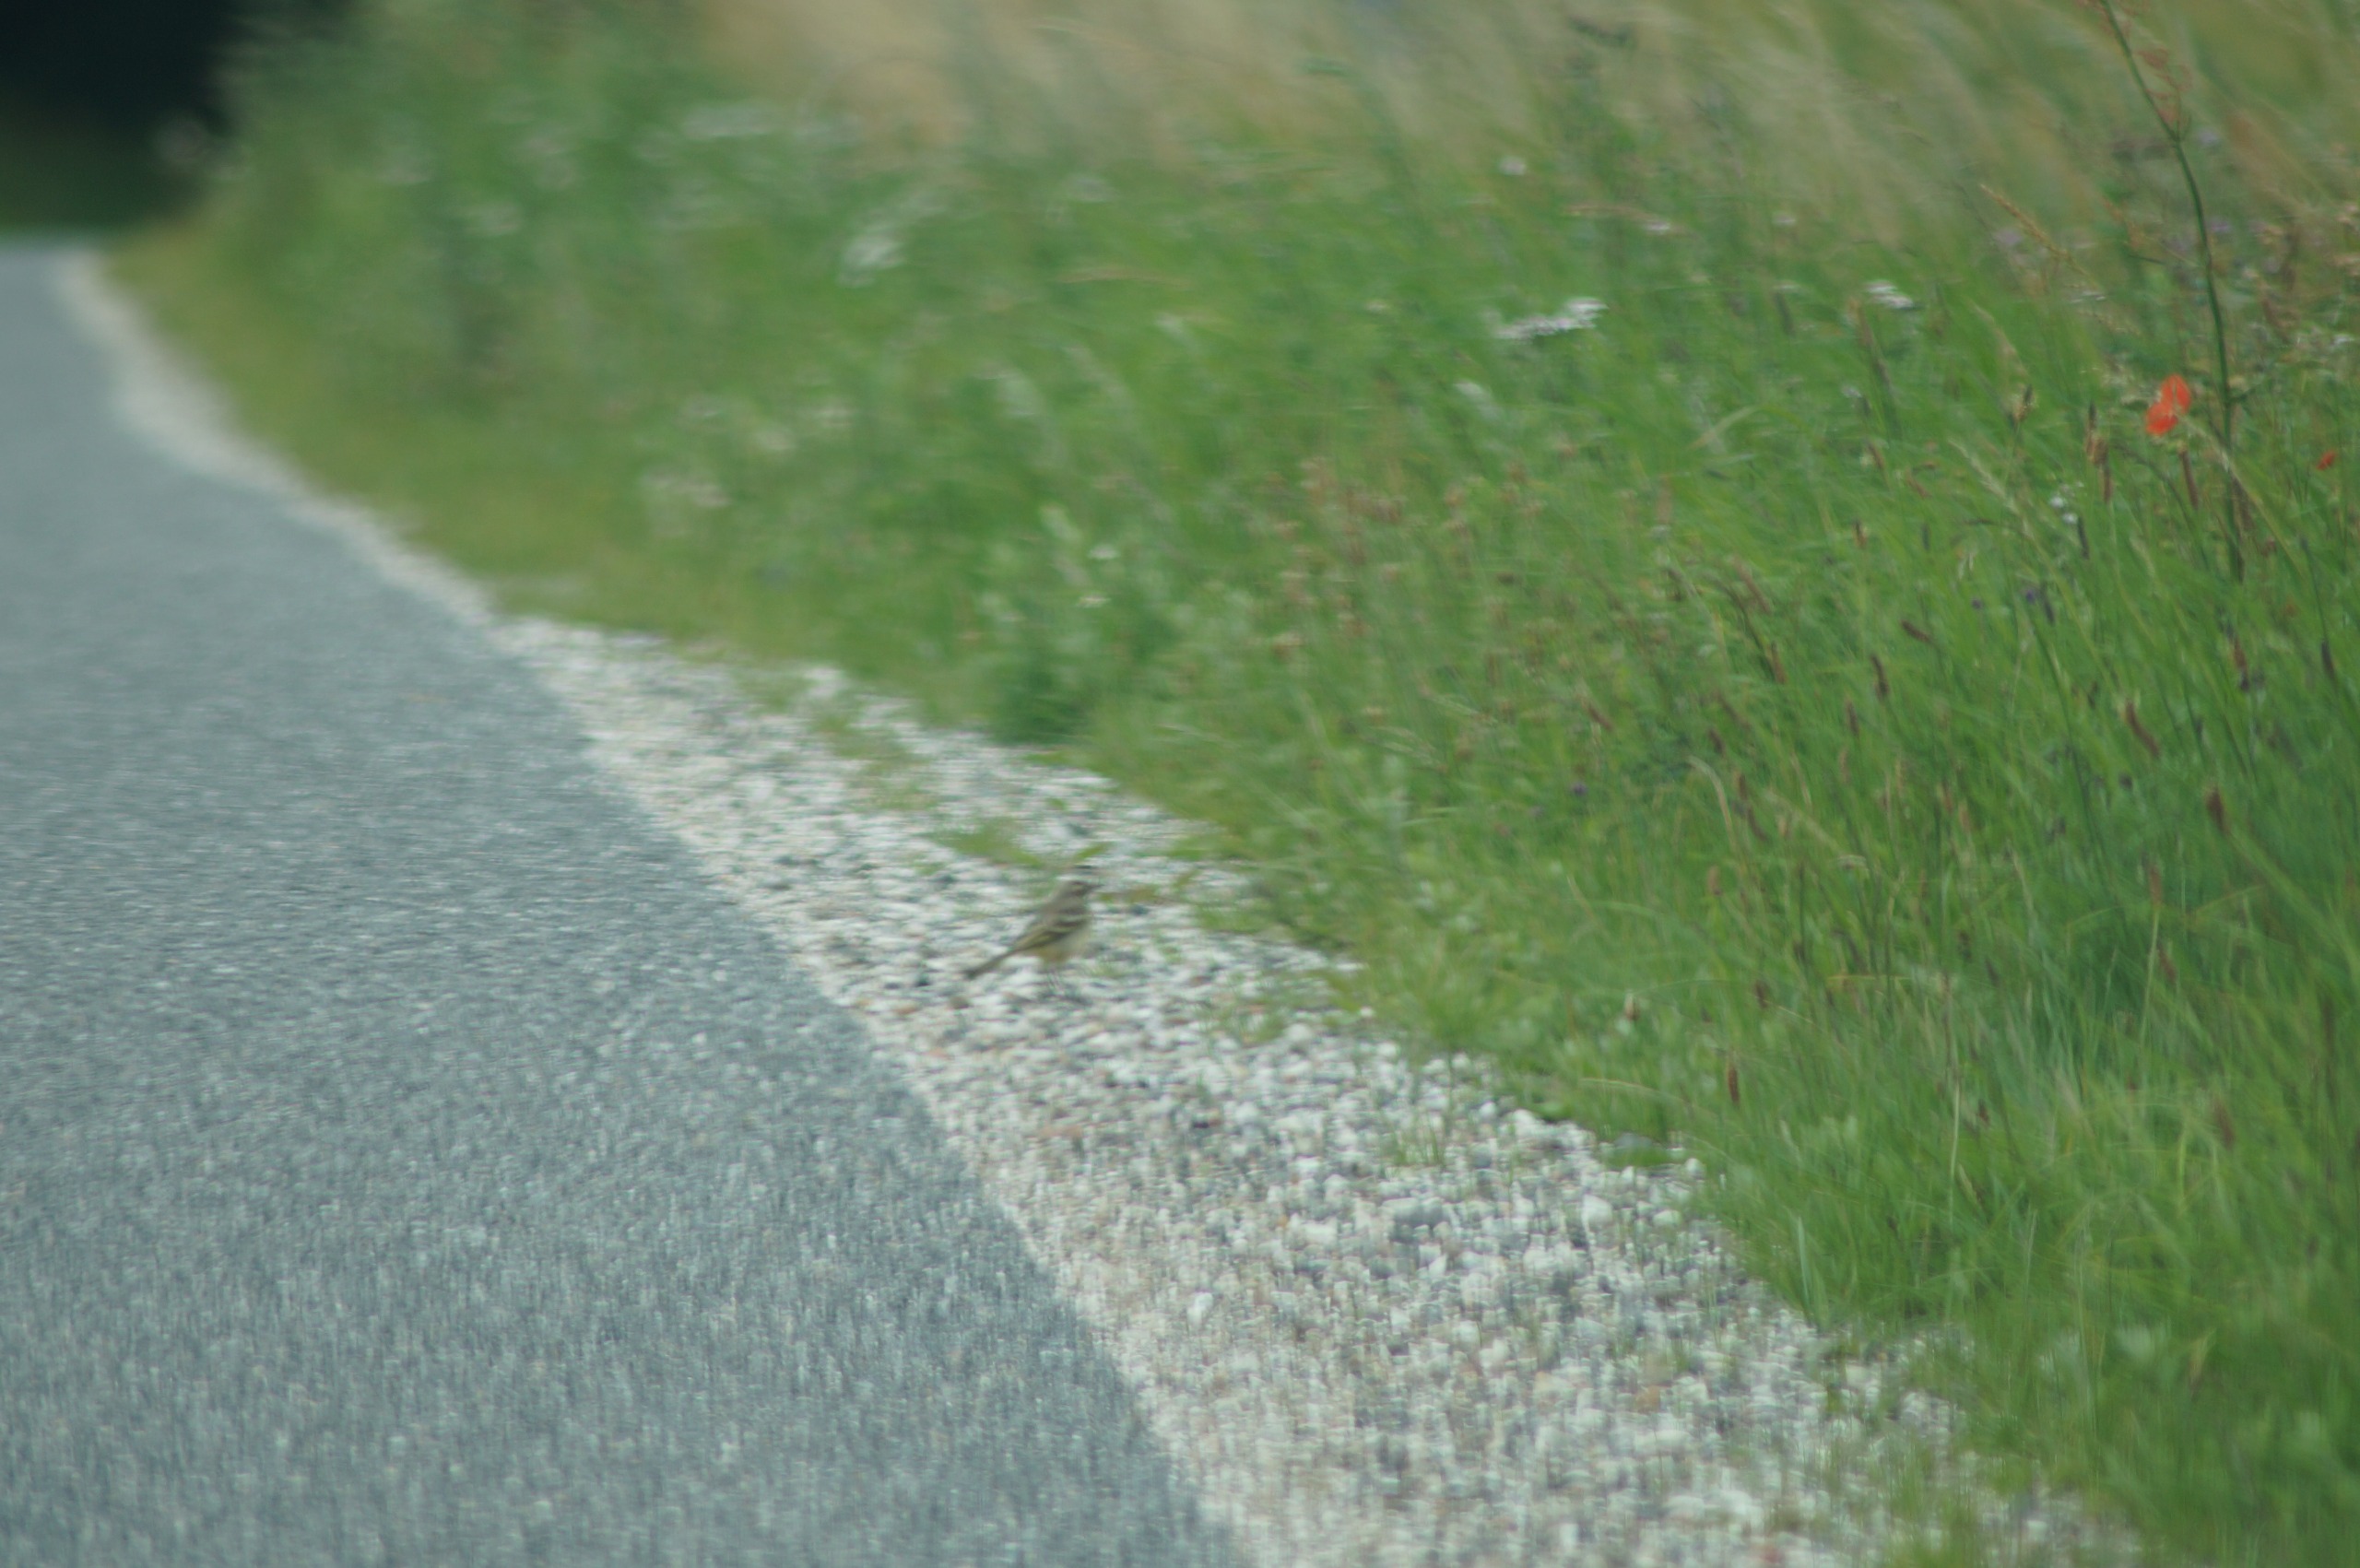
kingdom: Animalia
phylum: Chordata
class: Aves
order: Passeriformes
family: Motacillidae
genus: Motacilla
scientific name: Motacilla flava
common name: Gul vipstjert
